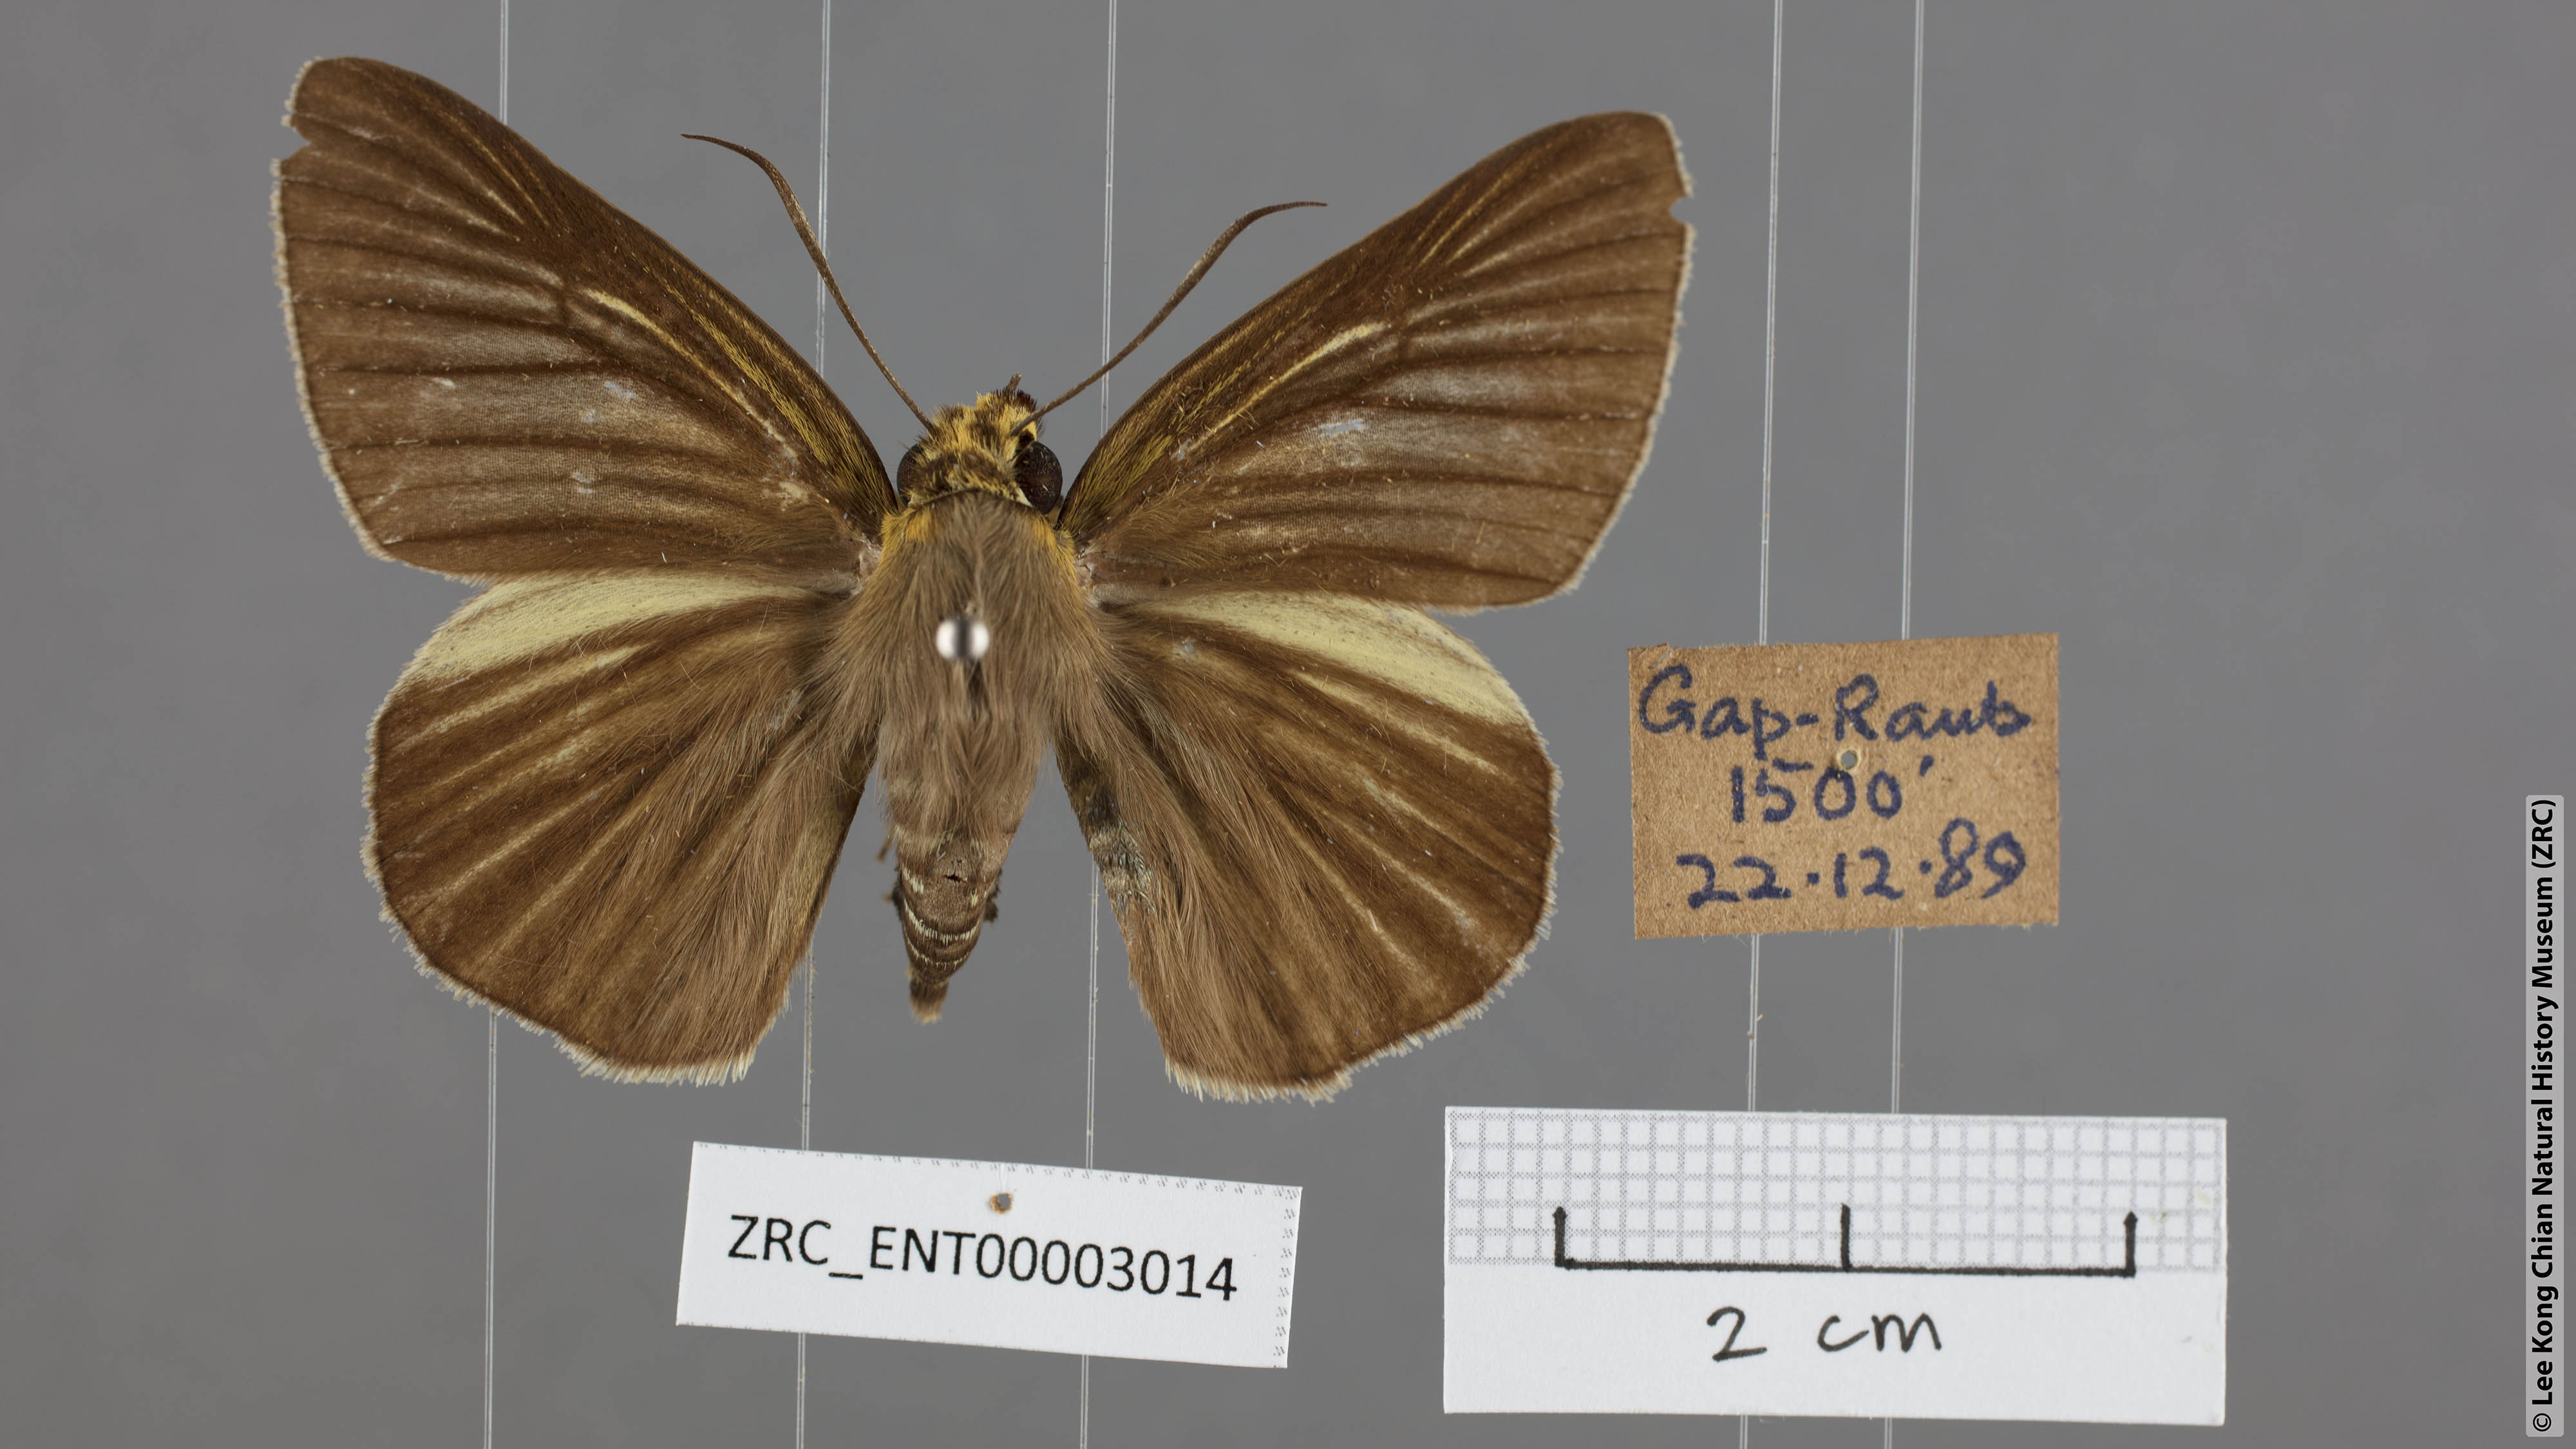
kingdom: Animalia
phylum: Arthropoda
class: Insecta
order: Lepidoptera
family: Hesperiidae
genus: Bibasis
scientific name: Bibasis gomata
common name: Pale green awlet
